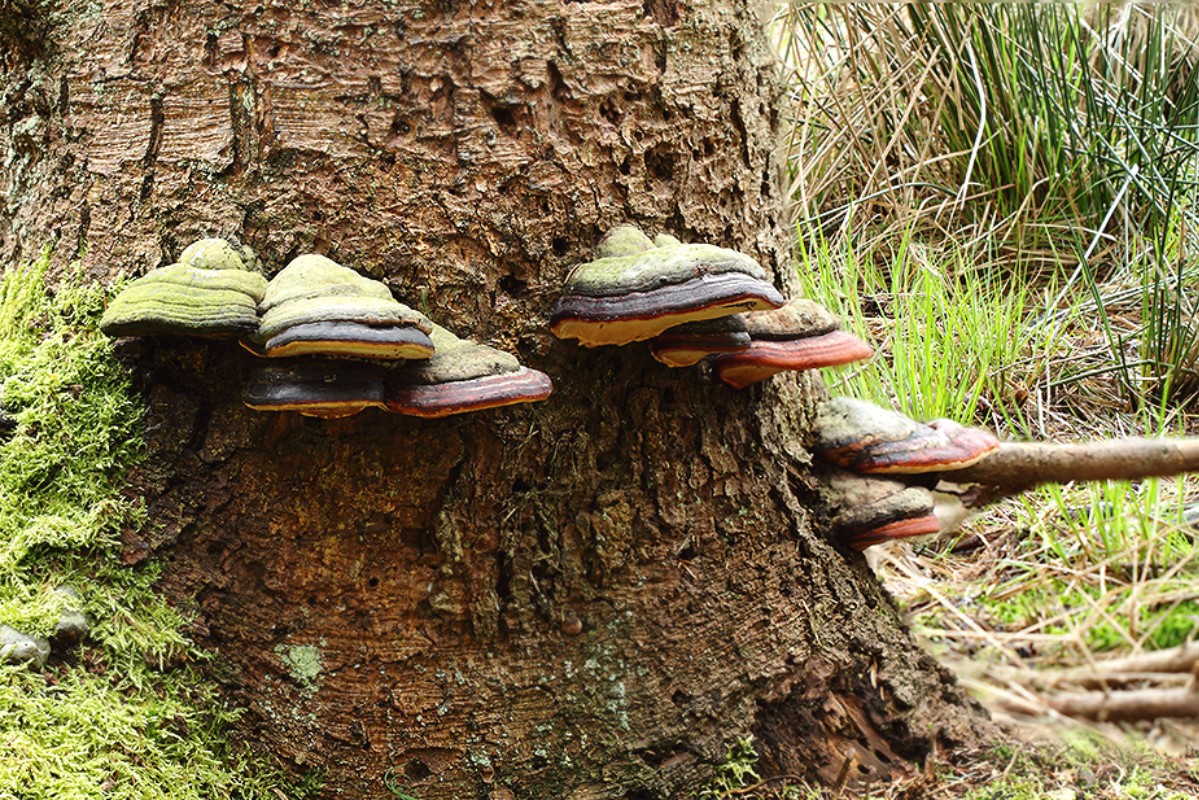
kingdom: Fungi
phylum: Basidiomycota
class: Agaricomycetes
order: Polyporales
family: Fomitopsidaceae
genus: Fomitopsis
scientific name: Fomitopsis pinicola
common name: randbæltet hovporesvamp
